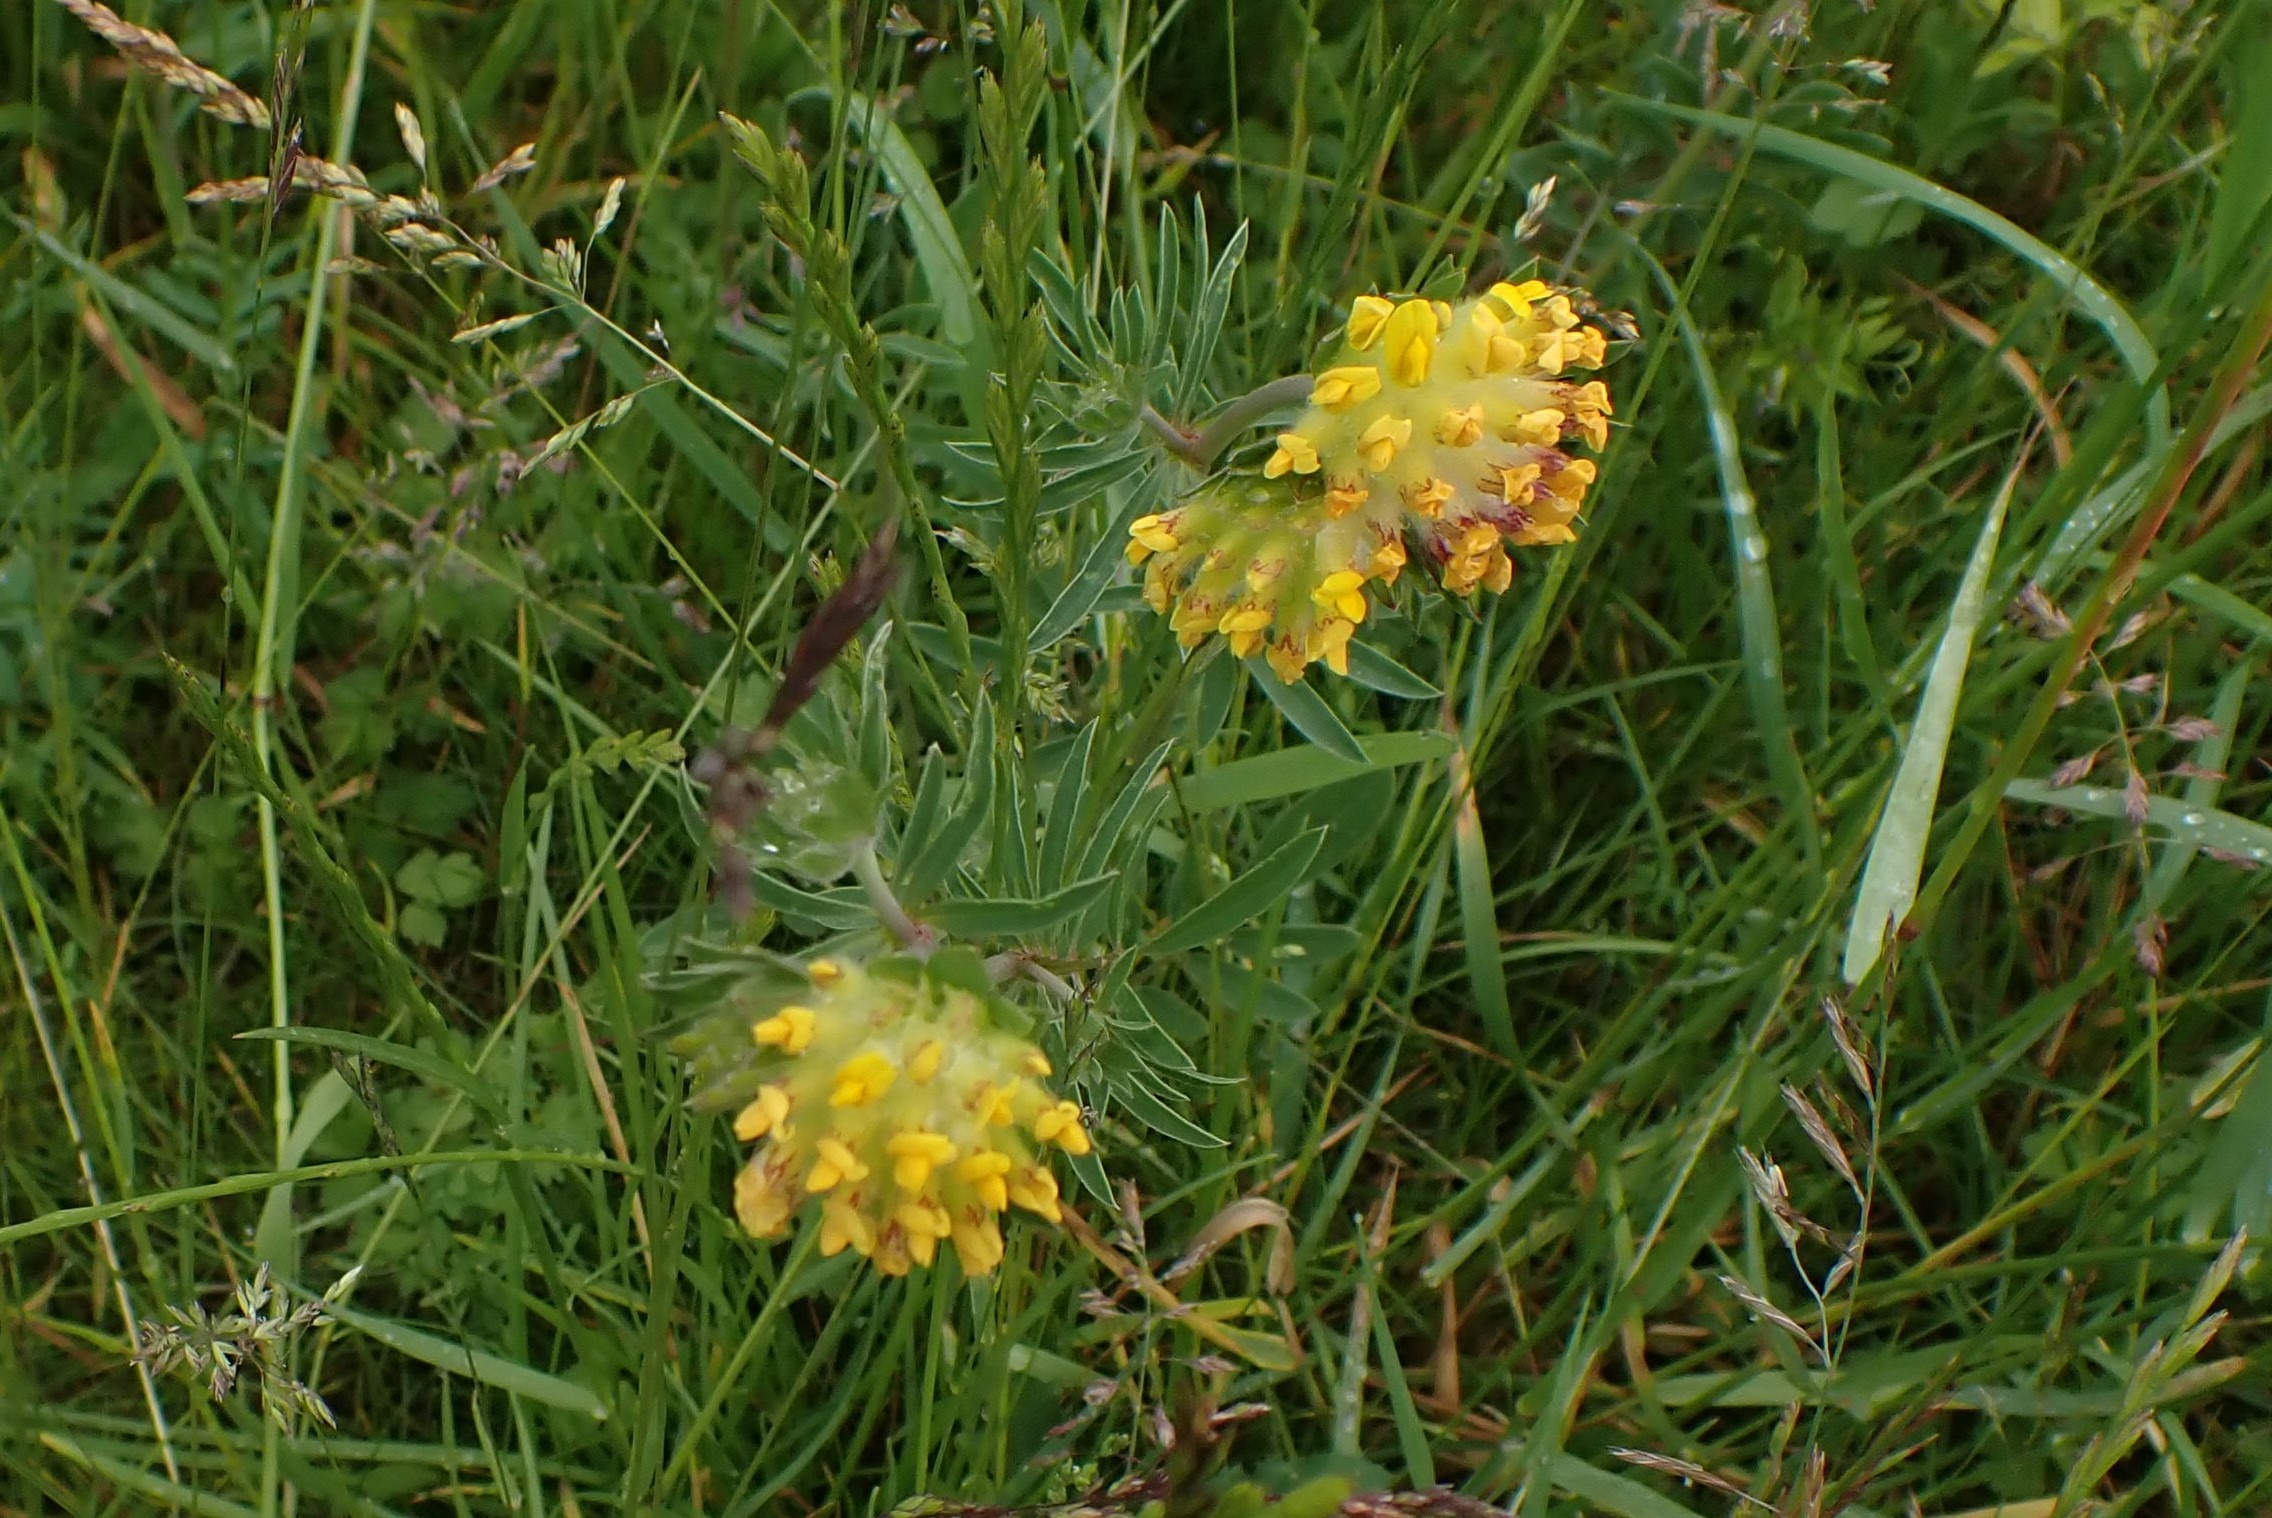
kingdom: Plantae
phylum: Tracheophyta
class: Magnoliopsida
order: Fabales
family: Fabaceae
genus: Anthyllis
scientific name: Anthyllis vulneraria
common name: Rundbælg
